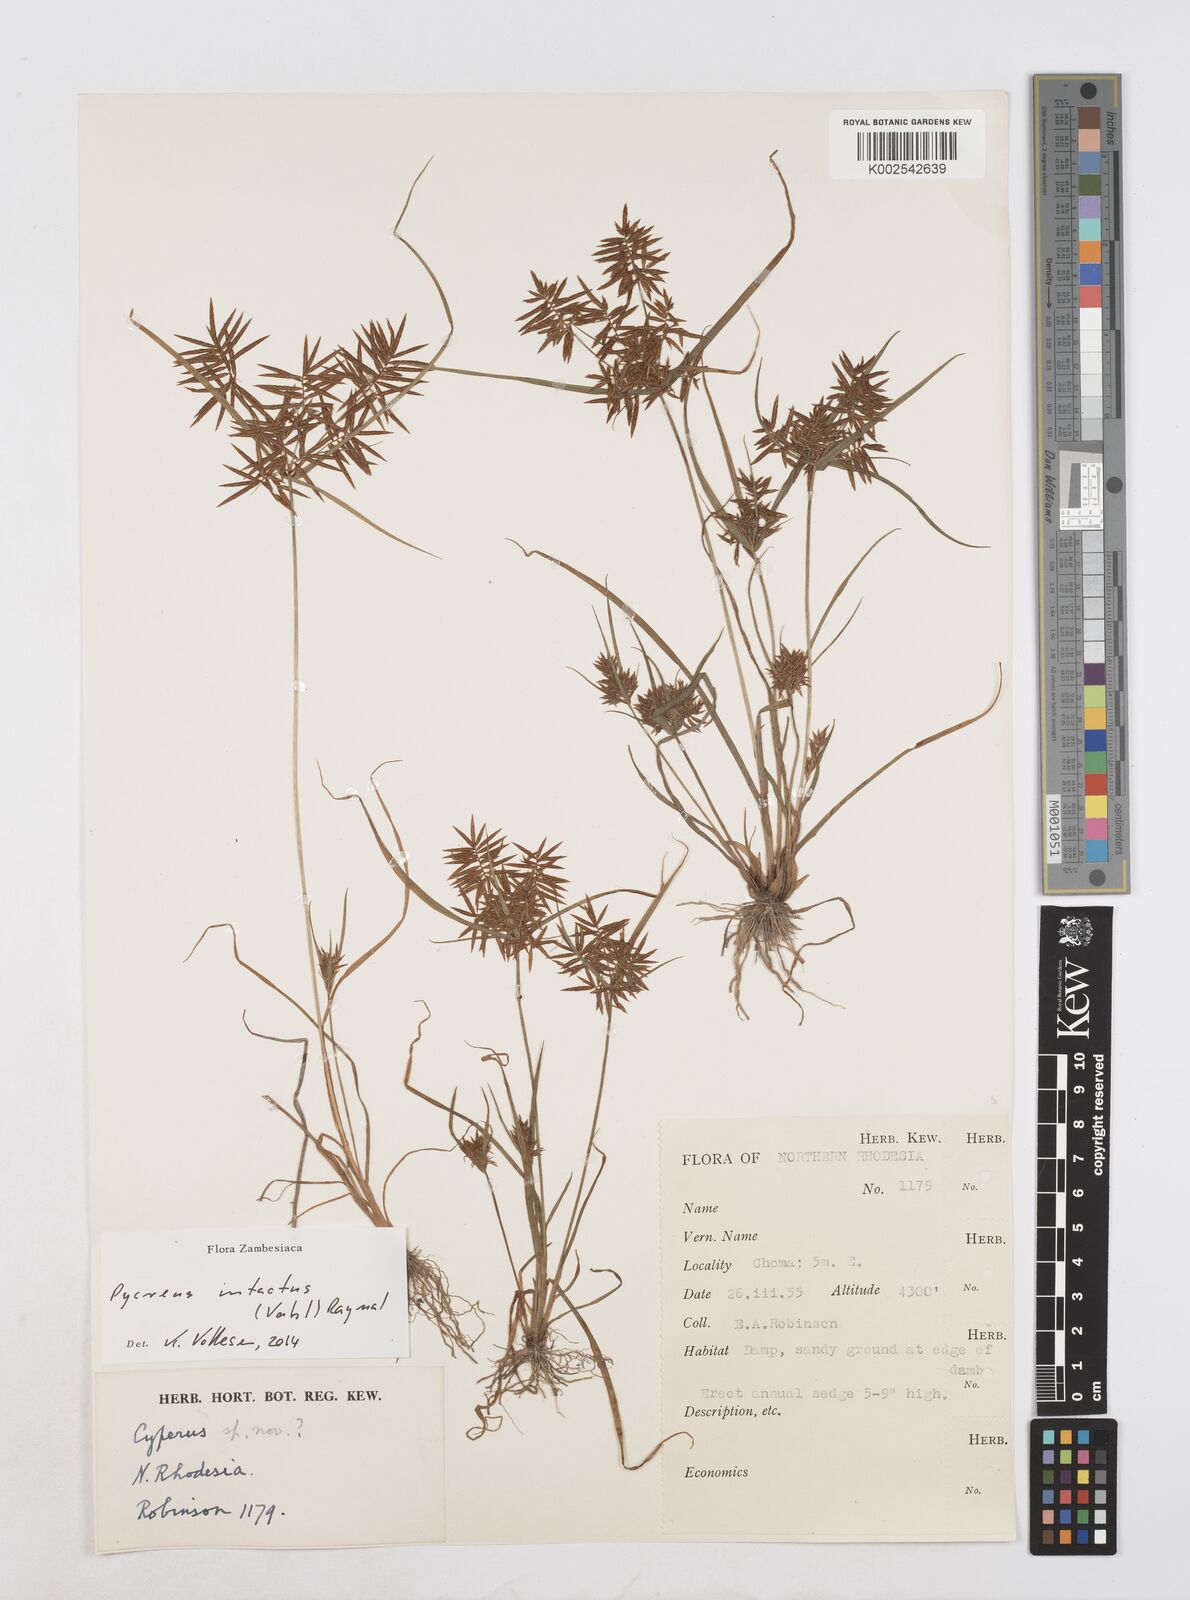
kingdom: Plantae
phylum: Tracheophyta
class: Liliopsida
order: Poales
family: Cyperaceae
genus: Cyperus
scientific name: Cyperus intactus
